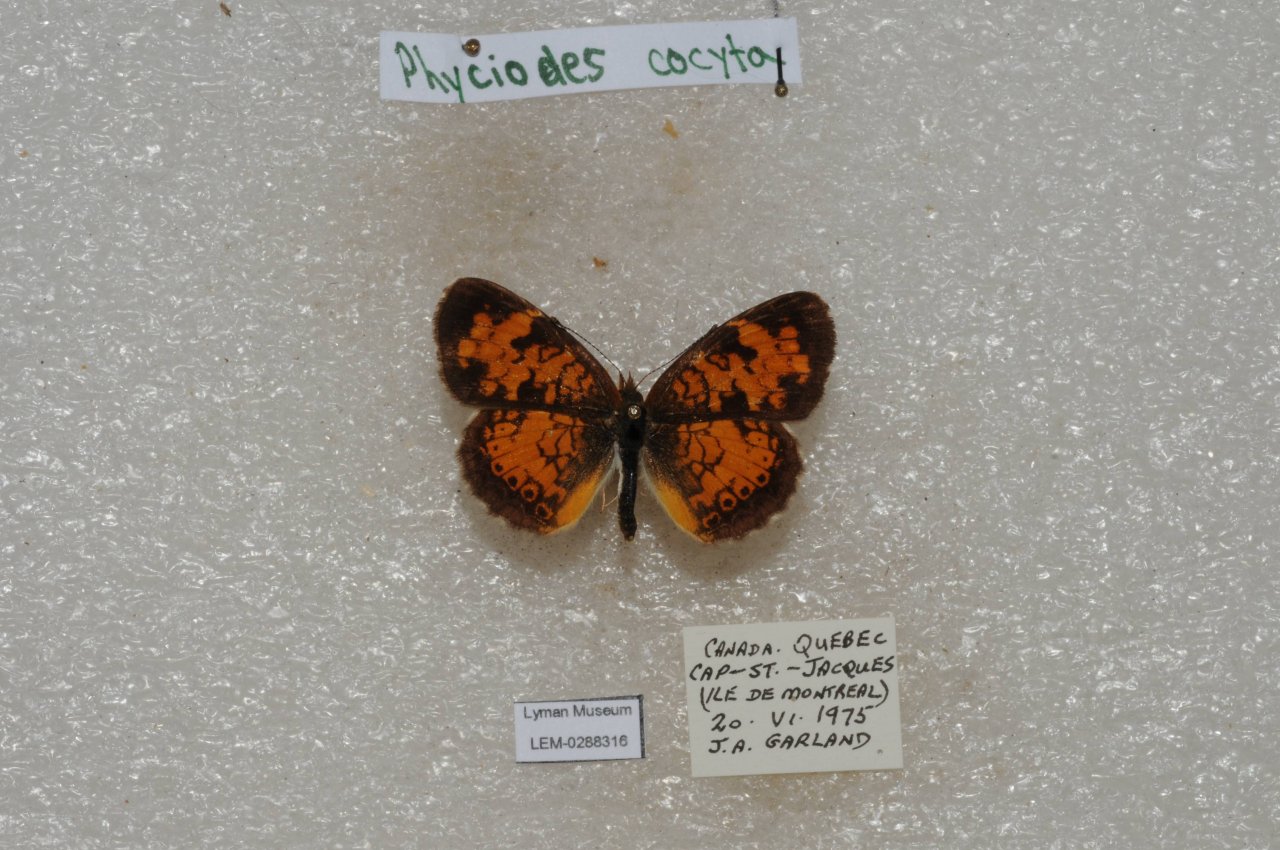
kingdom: Animalia
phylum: Arthropoda
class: Insecta
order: Lepidoptera
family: Nymphalidae
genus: Phyciodes
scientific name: Phyciodes tharos
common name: Northern Crescent
